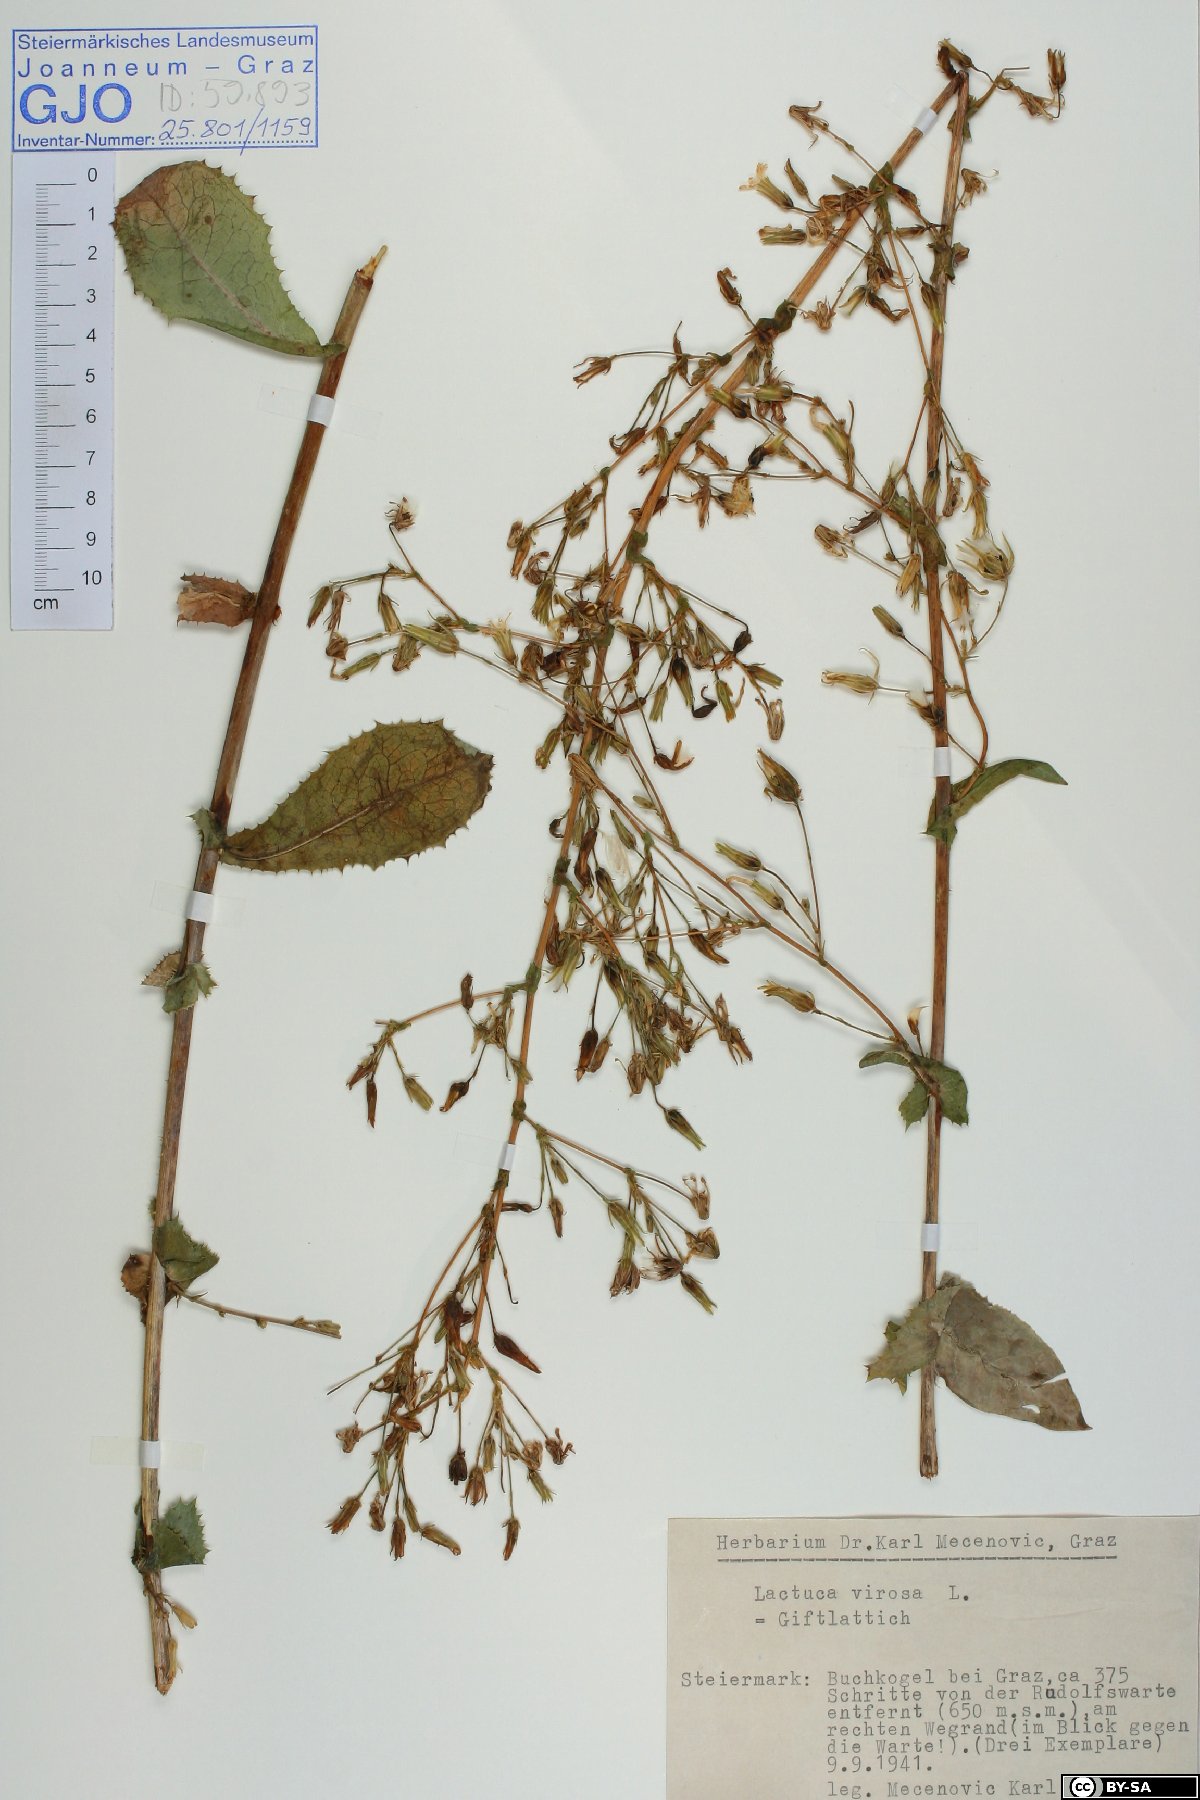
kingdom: Plantae
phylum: Tracheophyta
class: Magnoliopsida
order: Asterales
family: Asteraceae
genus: Lactuca
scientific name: Lactuca virosa
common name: Great lettuce
